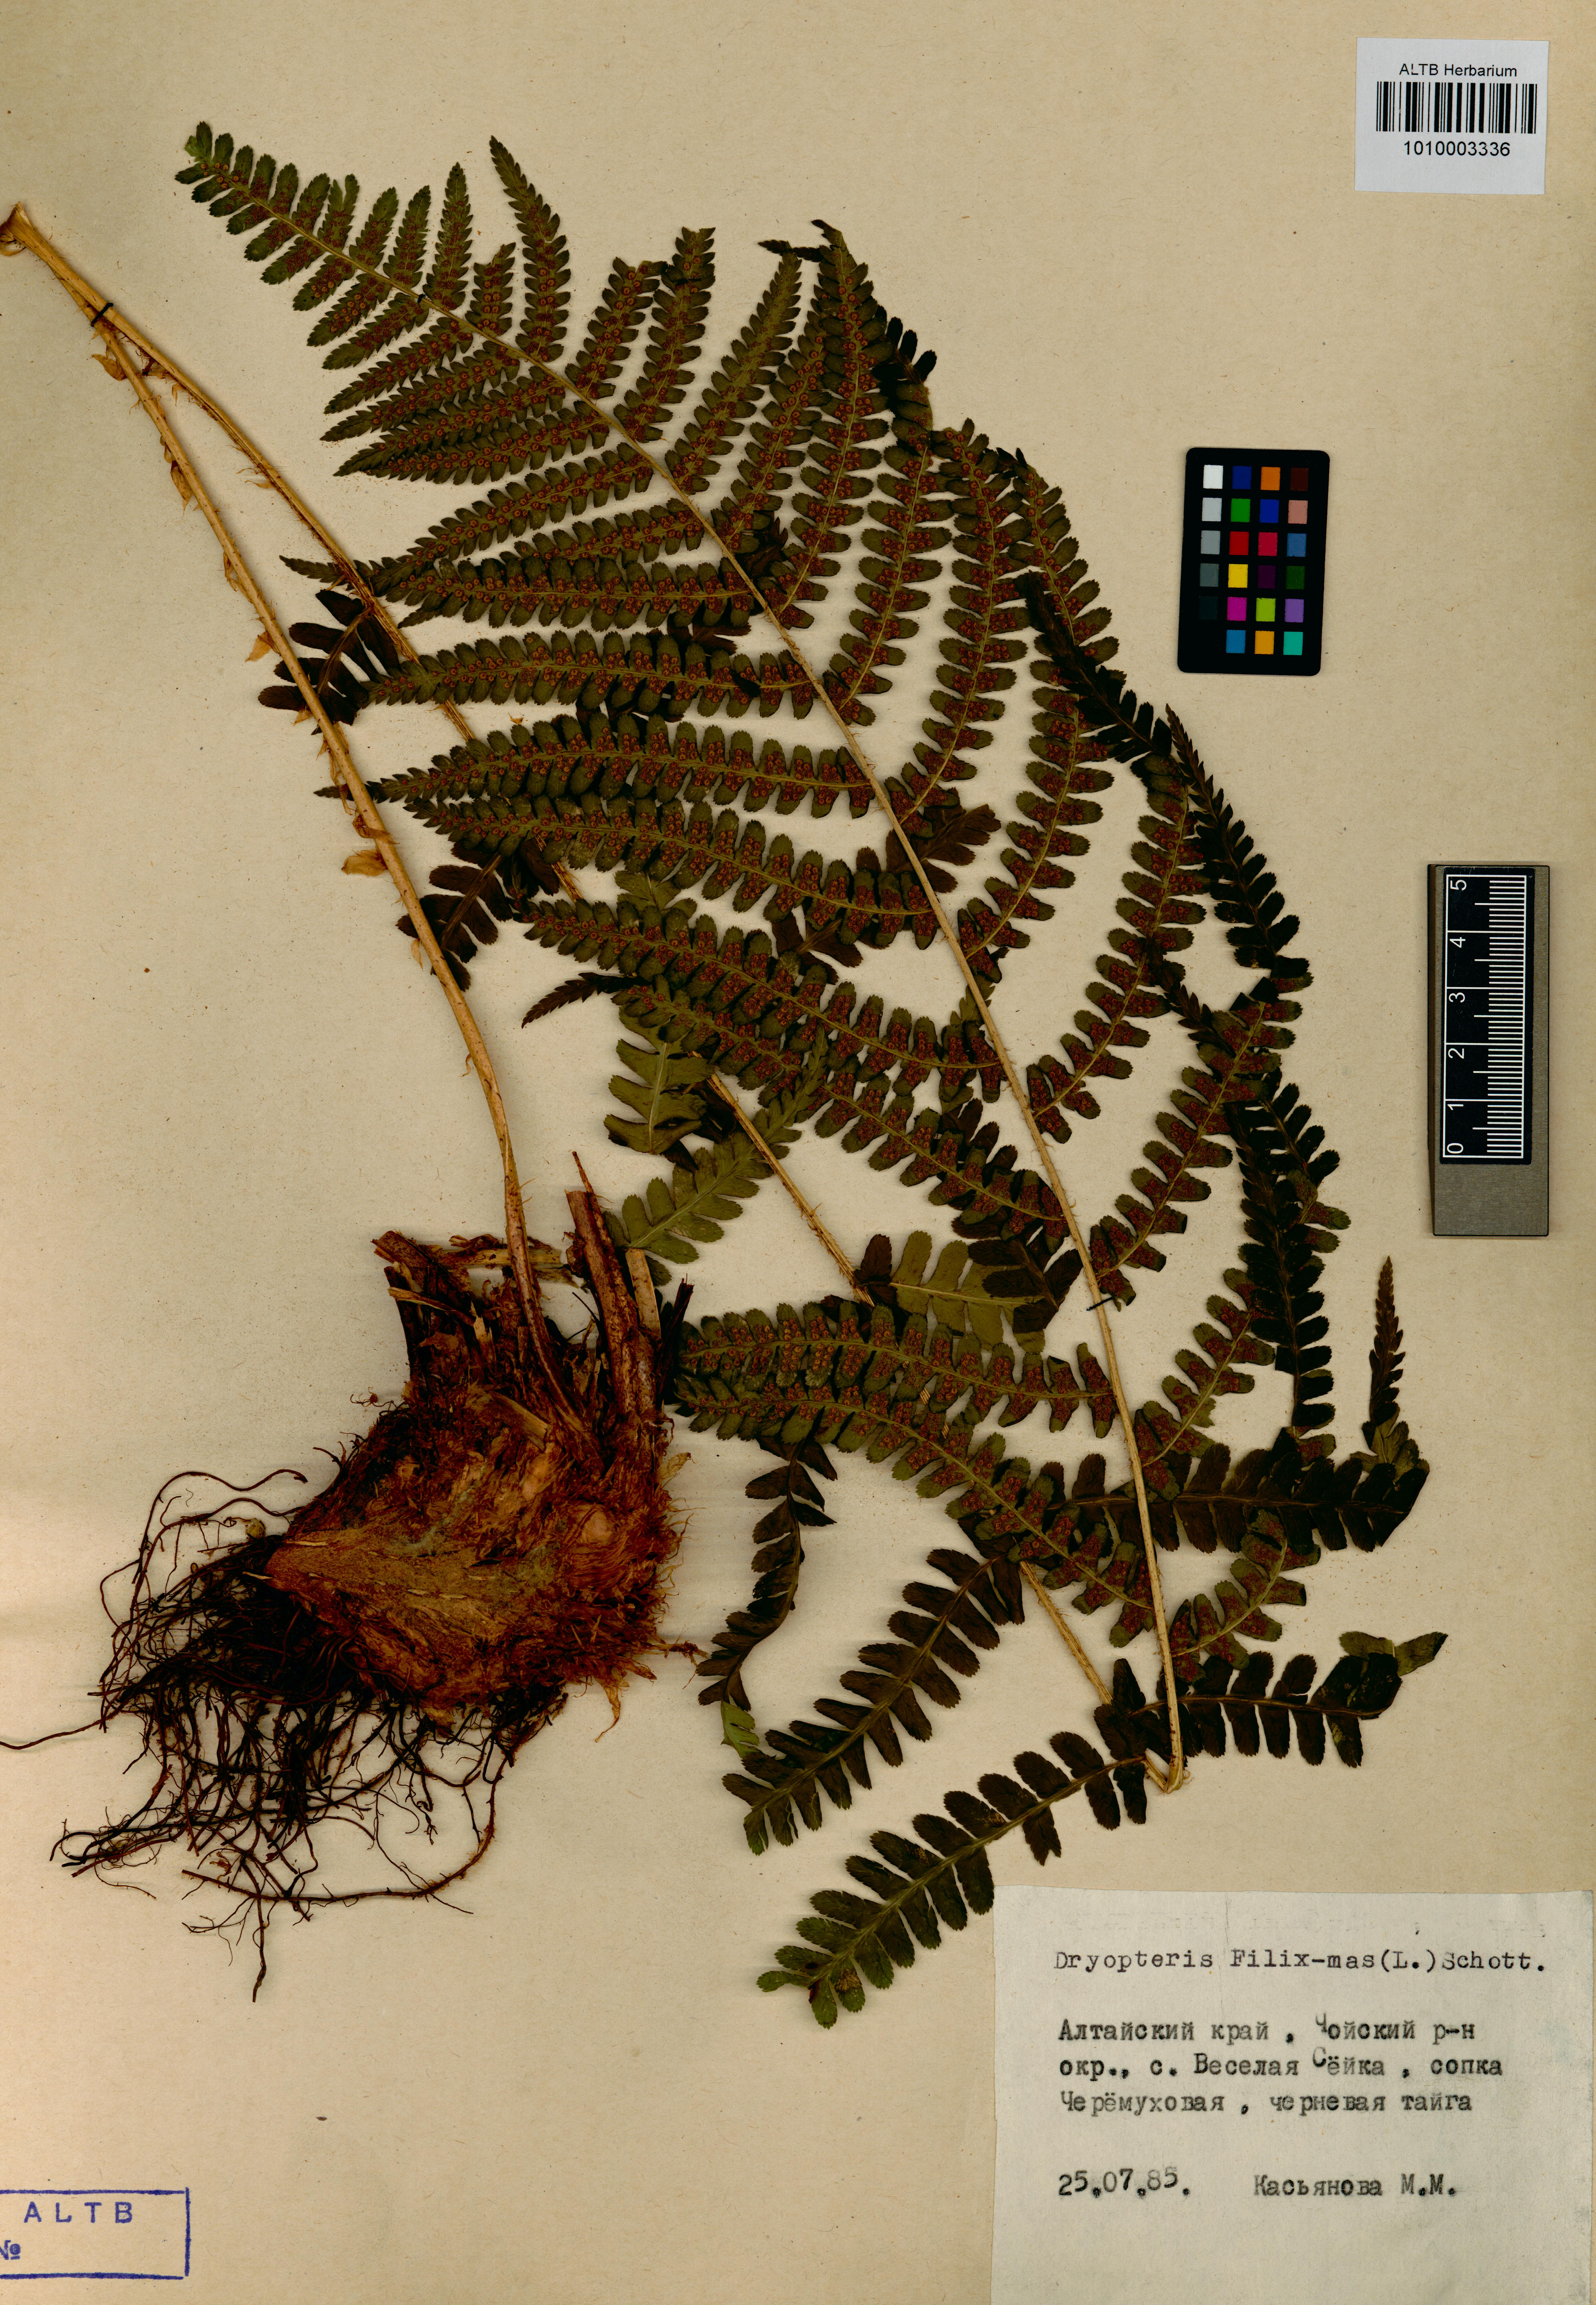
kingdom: Plantae
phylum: Tracheophyta
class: Polypodiopsida
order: Polypodiales
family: Dryopteridaceae
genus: Dryopteris
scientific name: Dryopteris filix-mas
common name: Male fern
